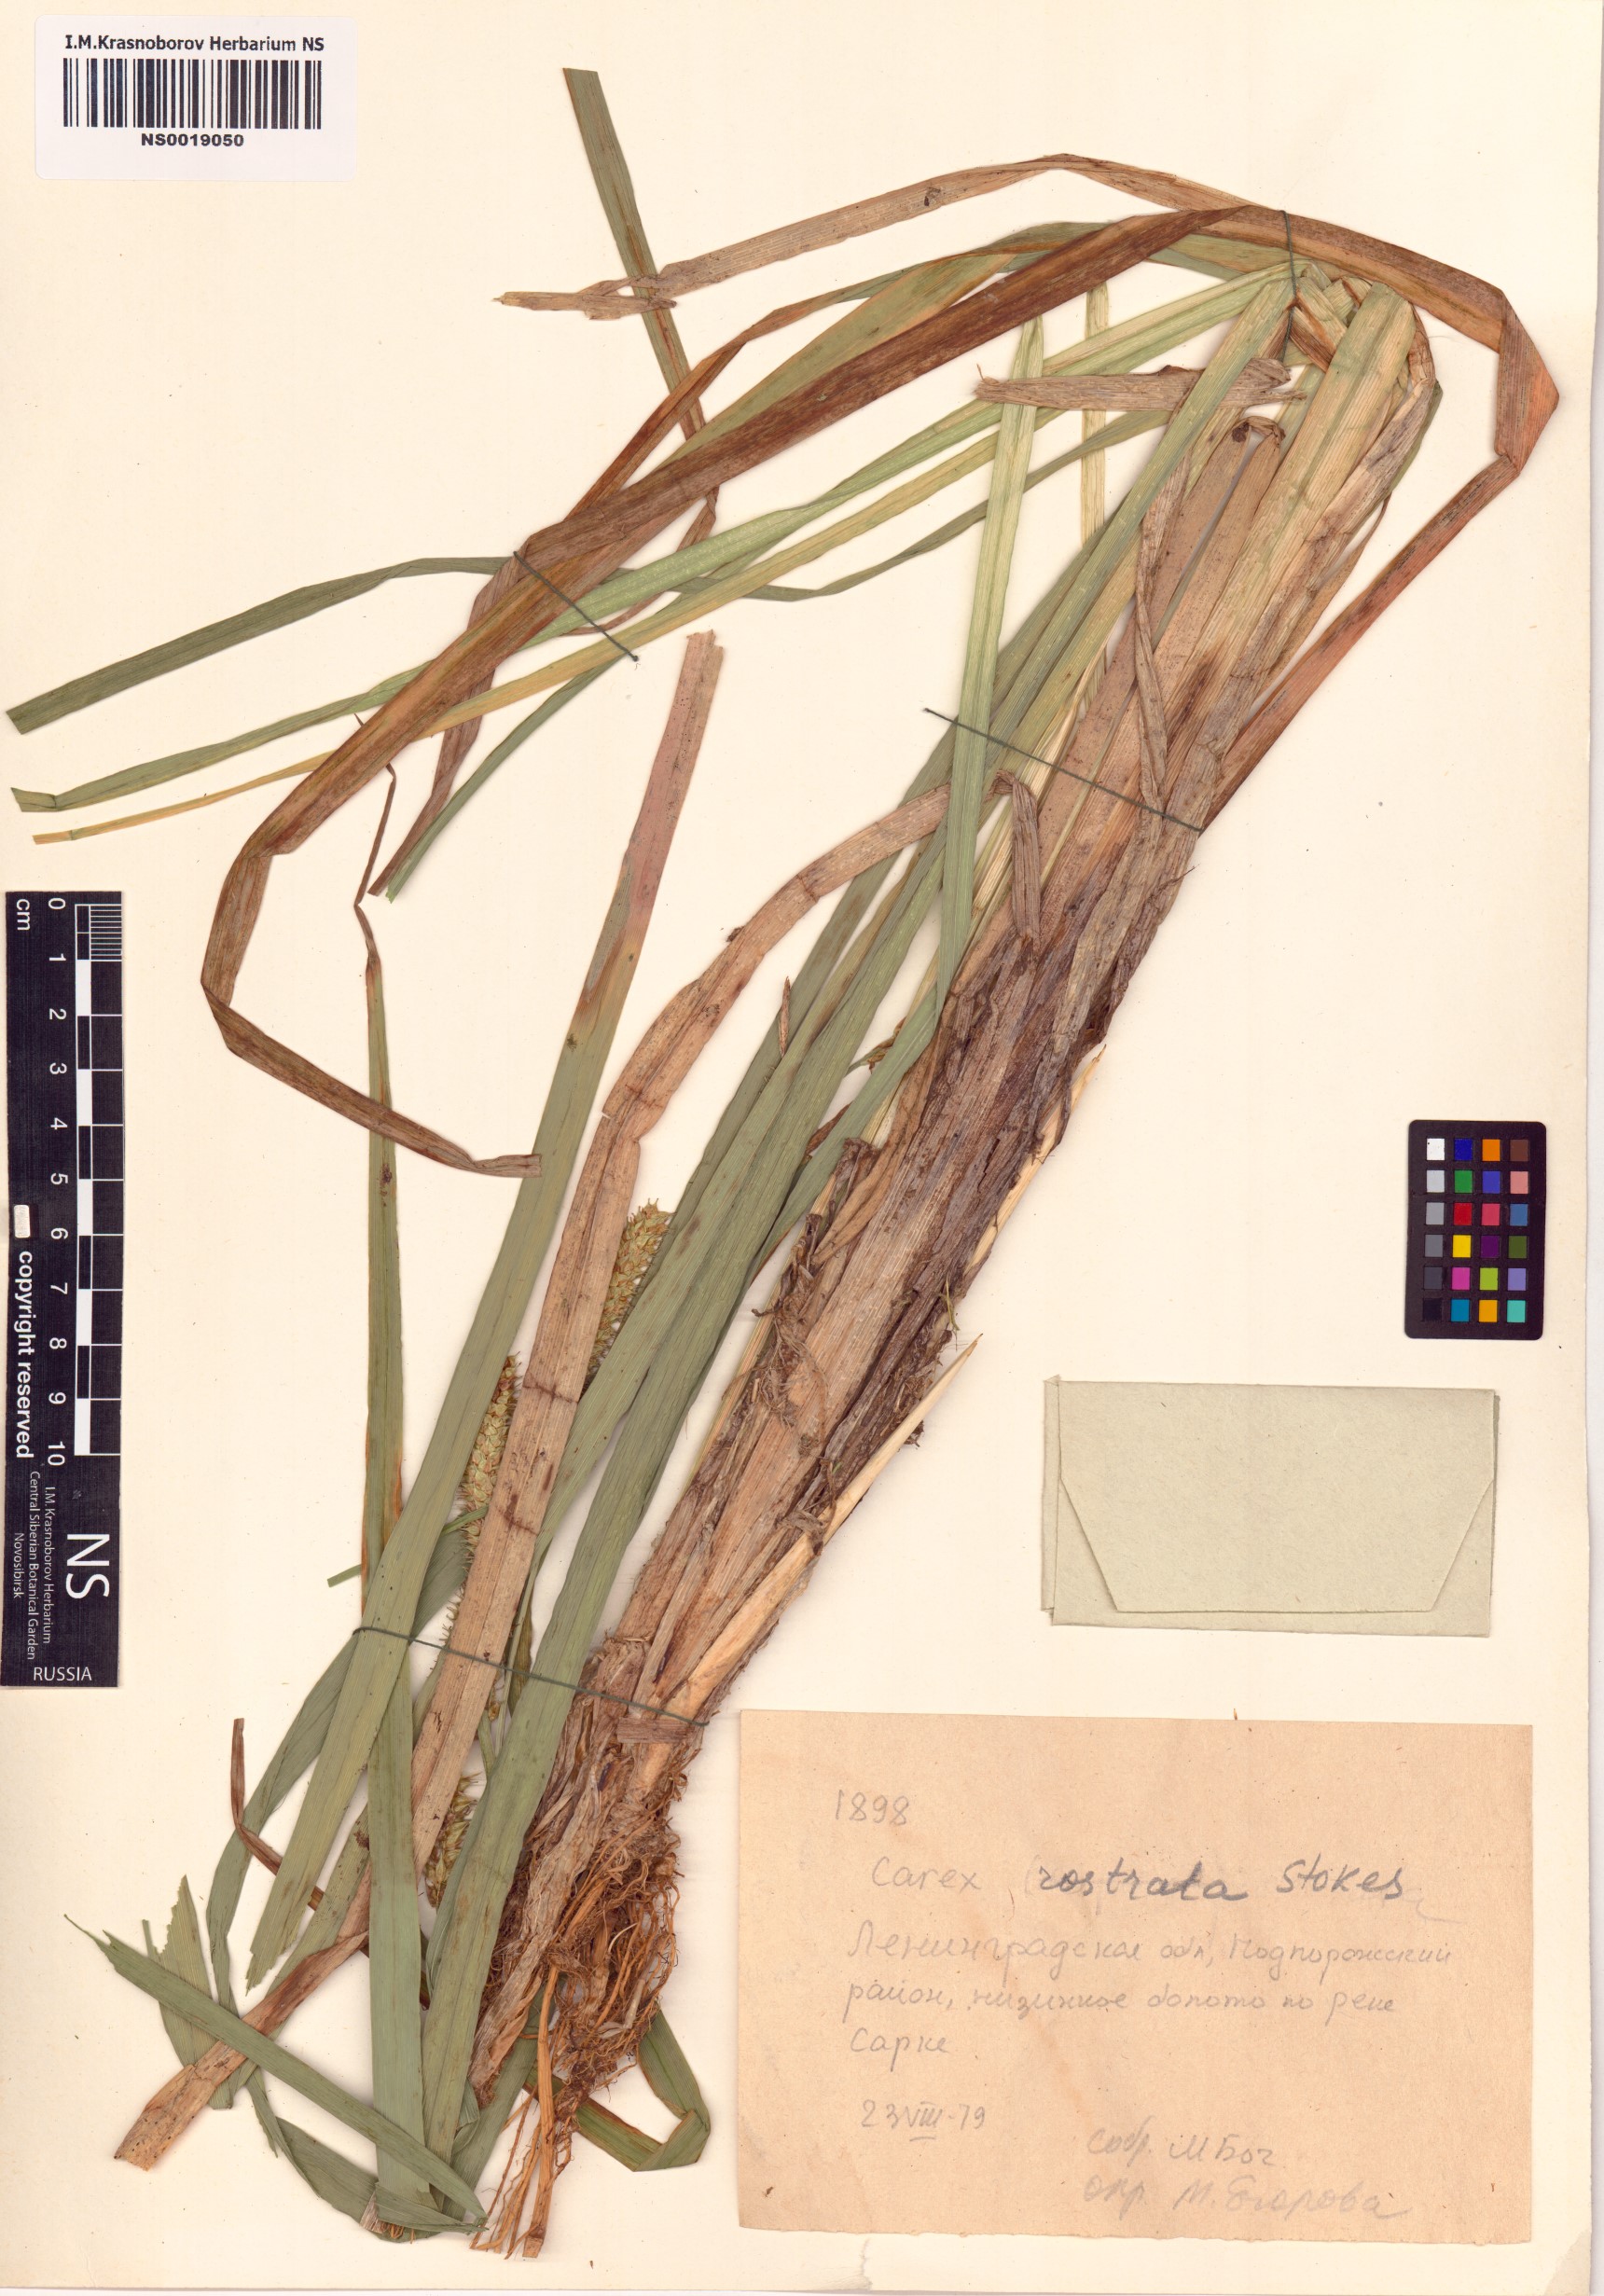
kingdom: Plantae
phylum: Tracheophyta
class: Liliopsida
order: Poales
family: Cyperaceae
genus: Carex
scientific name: Carex rostrata
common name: Bottle sedge
